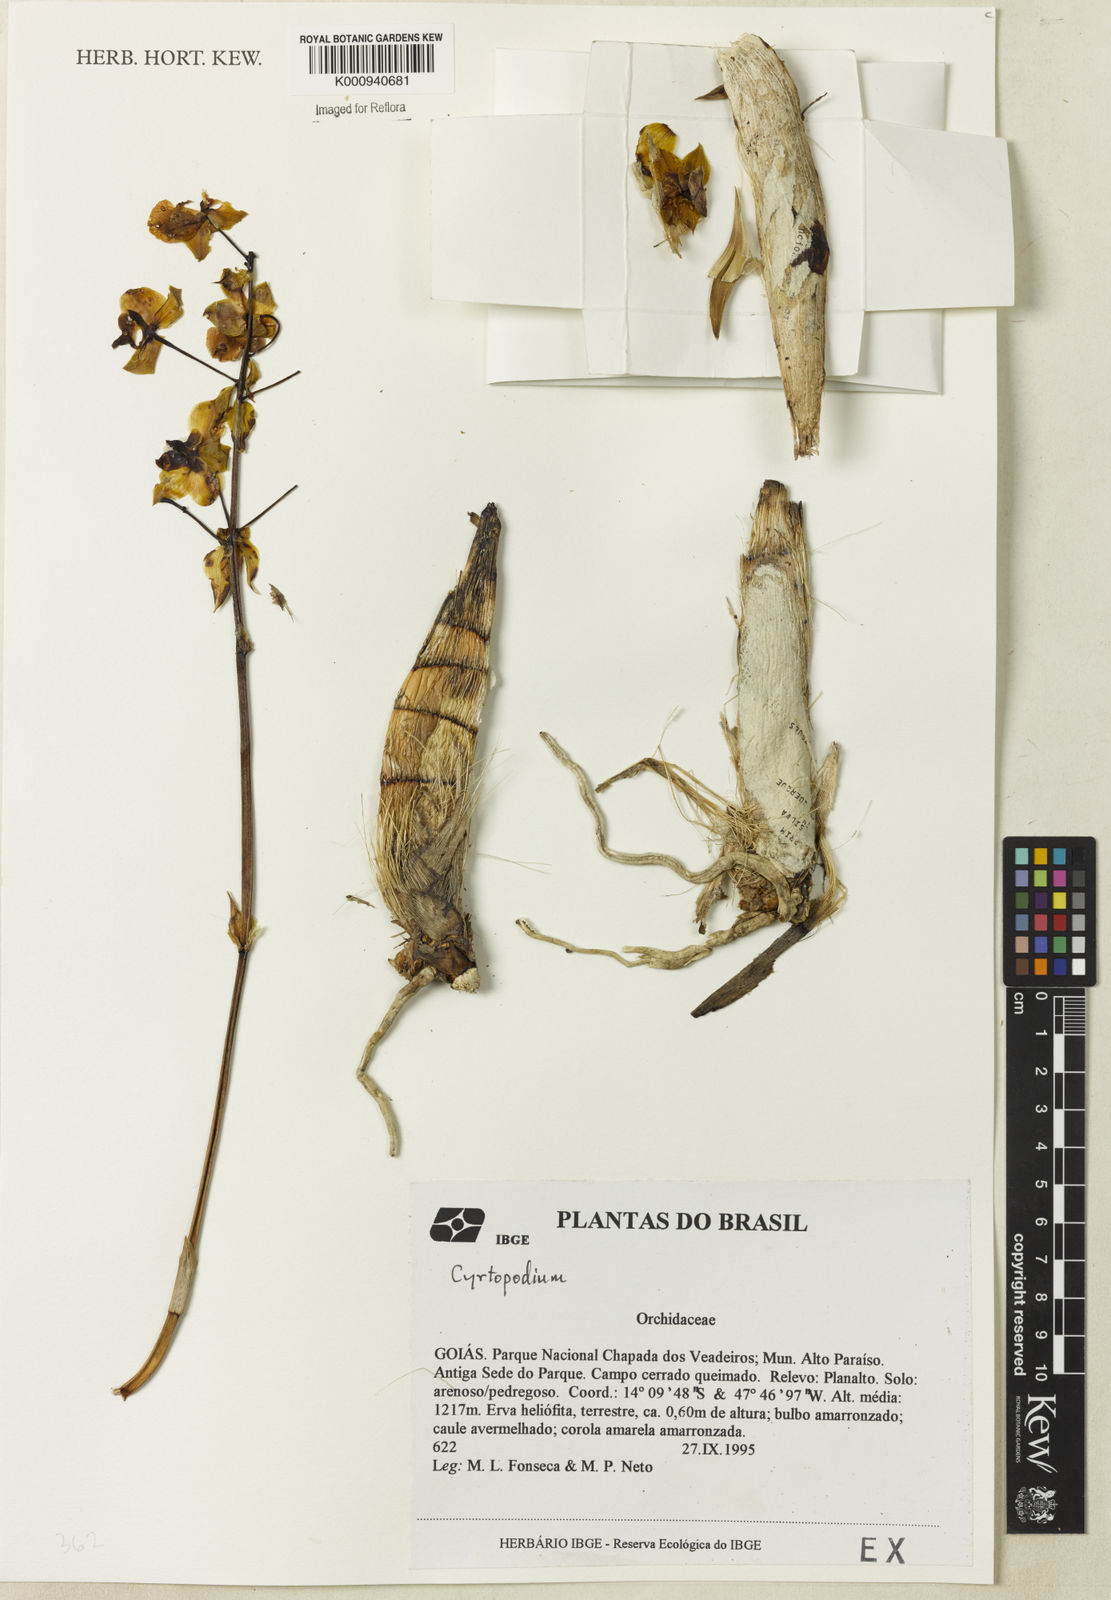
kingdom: Plantae
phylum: Tracheophyta
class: Liliopsida
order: Asparagales
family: Orchidaceae
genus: Cyrtopodium
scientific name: Cyrtopodium
